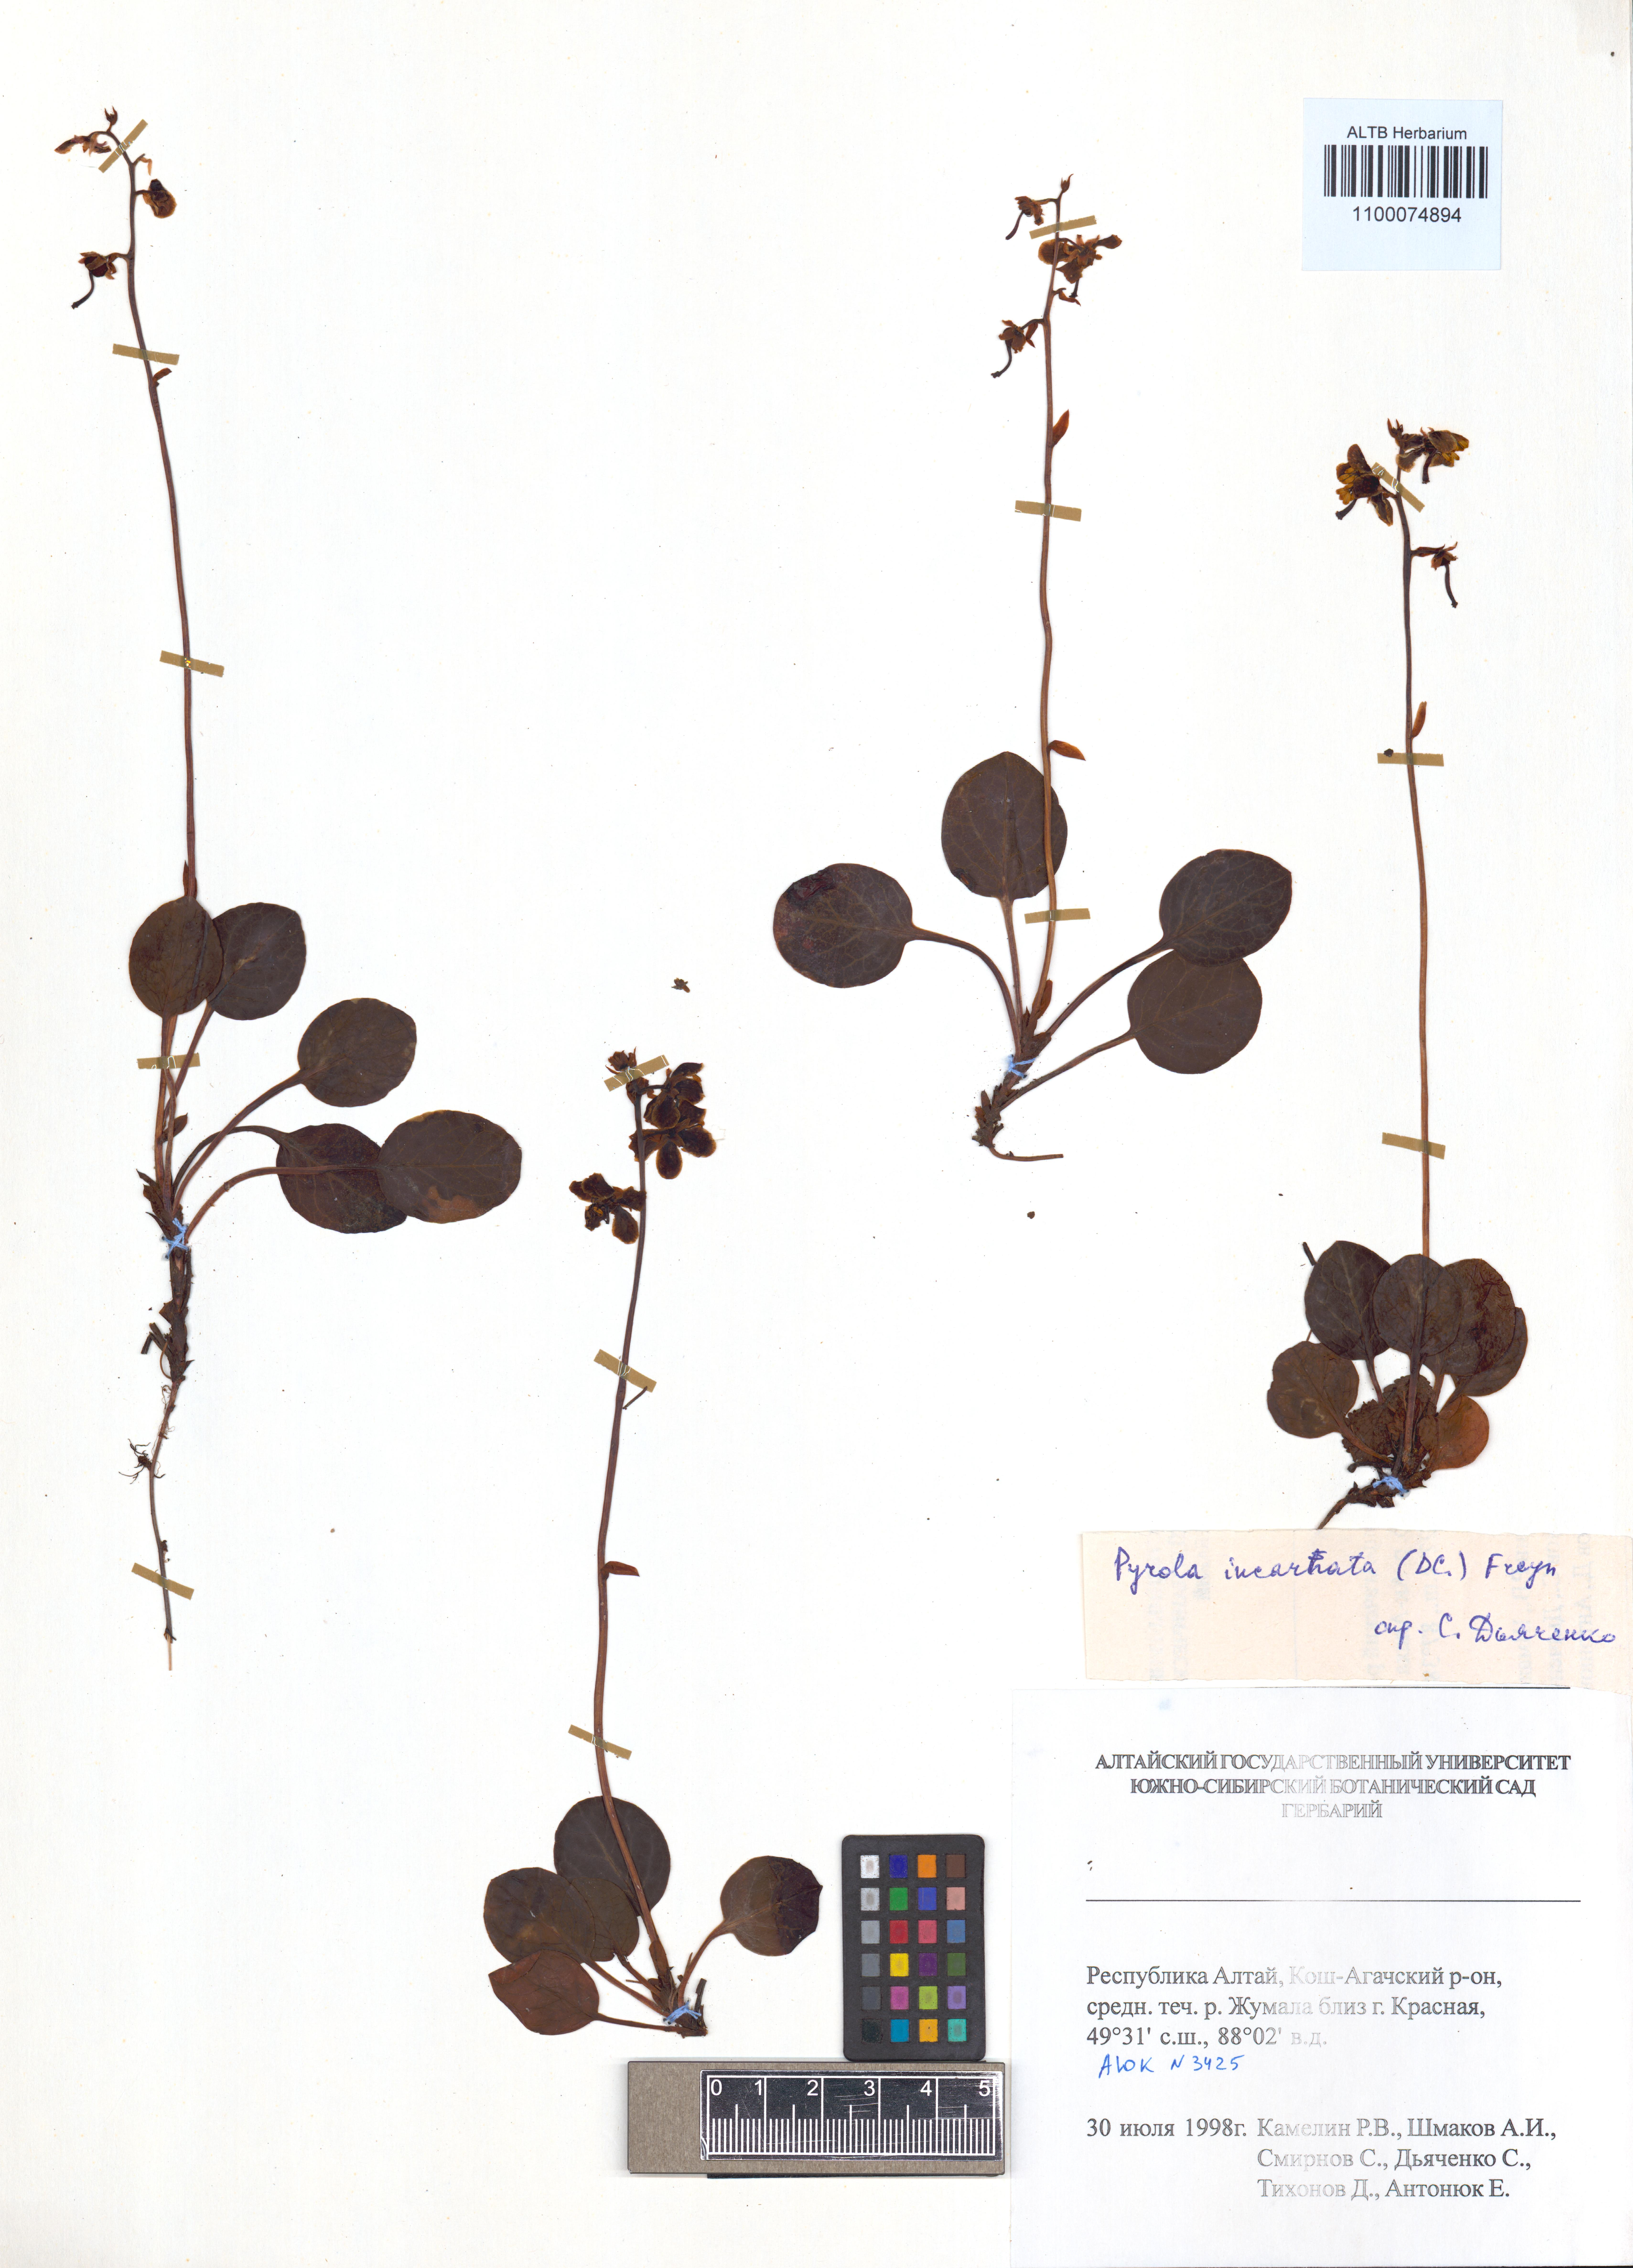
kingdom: Plantae
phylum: Tracheophyta
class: Magnoliopsida
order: Ericales
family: Ericaceae
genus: Pyrola
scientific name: Pyrola asarifolia
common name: Bog wintergreen
